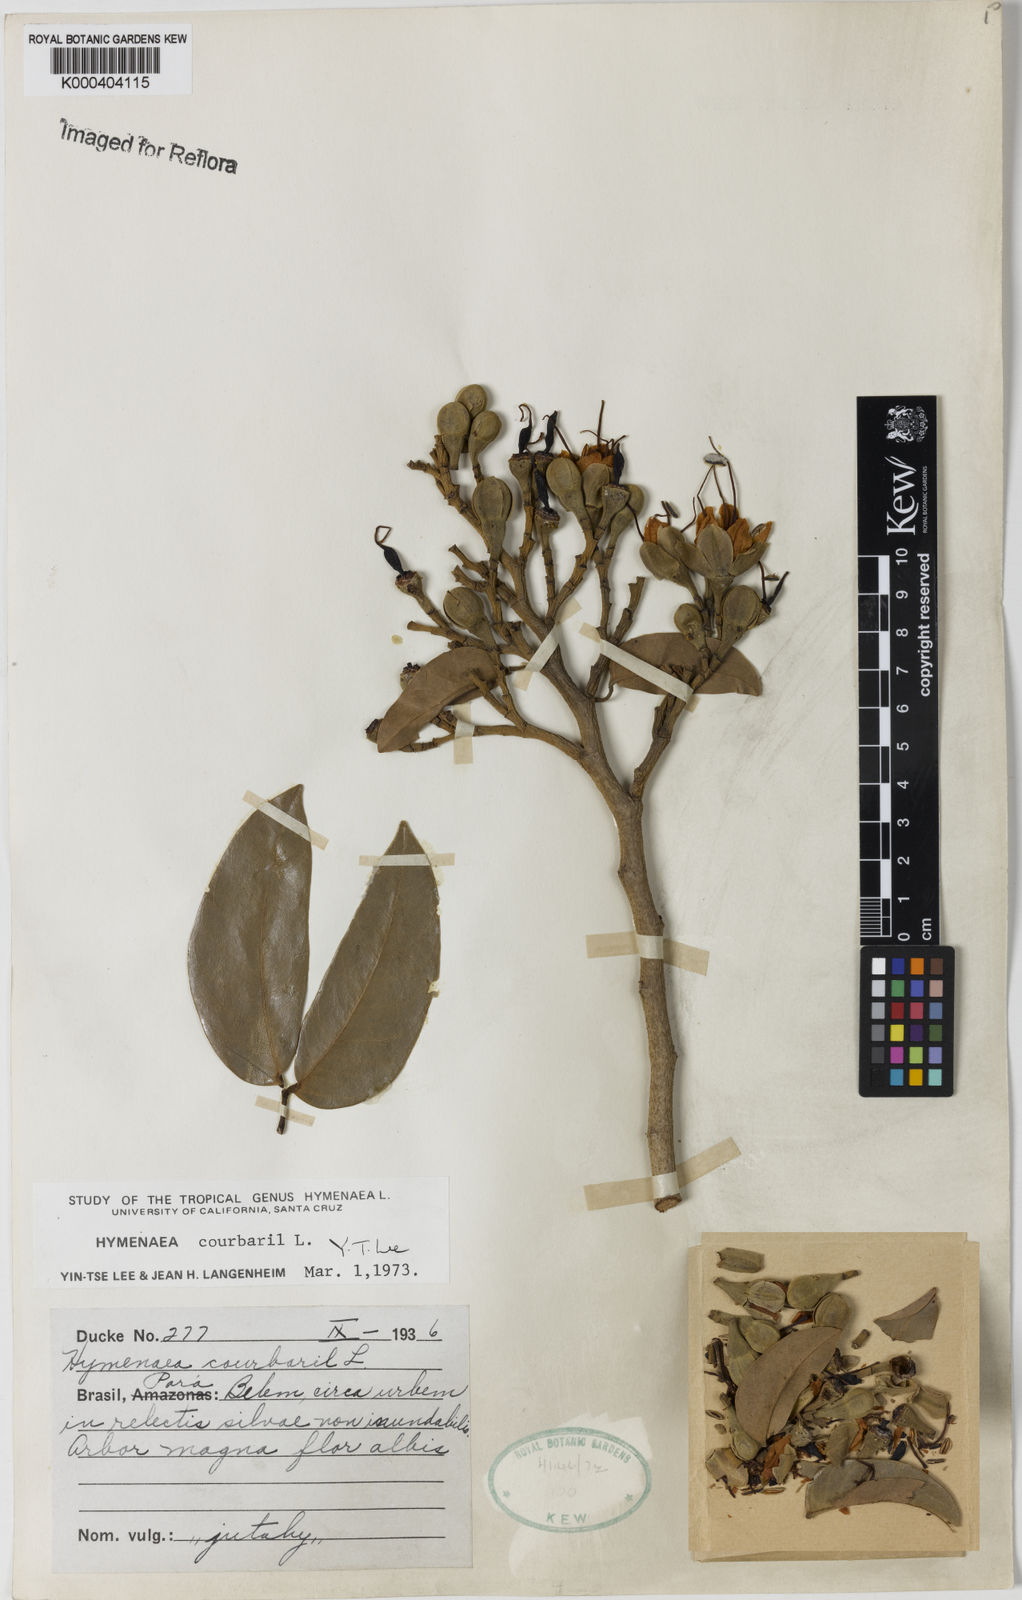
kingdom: Plantae
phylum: Tracheophyta
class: Magnoliopsida
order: Fabales
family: Fabaceae
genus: Hymenaea
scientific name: Hymenaea courbaril
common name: Brazilian copal
